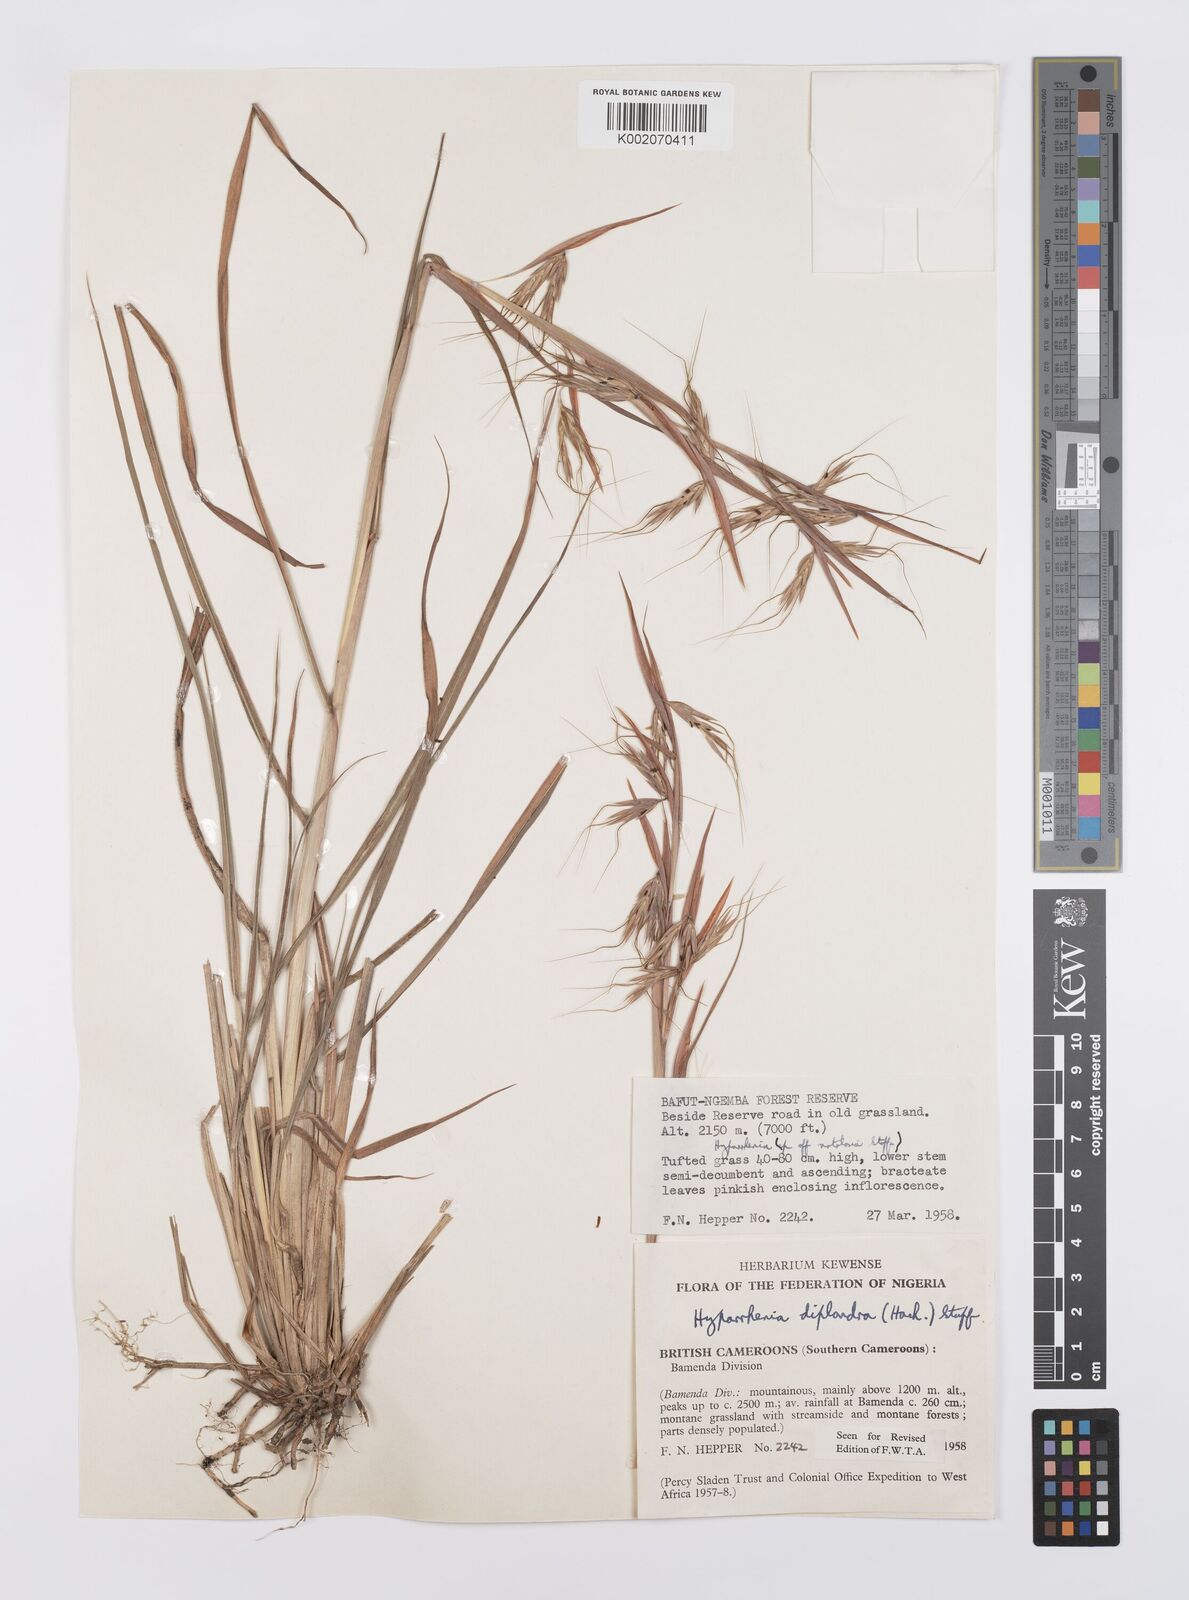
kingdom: Plantae
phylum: Tracheophyta
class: Liliopsida
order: Poales
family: Poaceae
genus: Hyparrhenia
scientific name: Hyparrhenia diplandra
